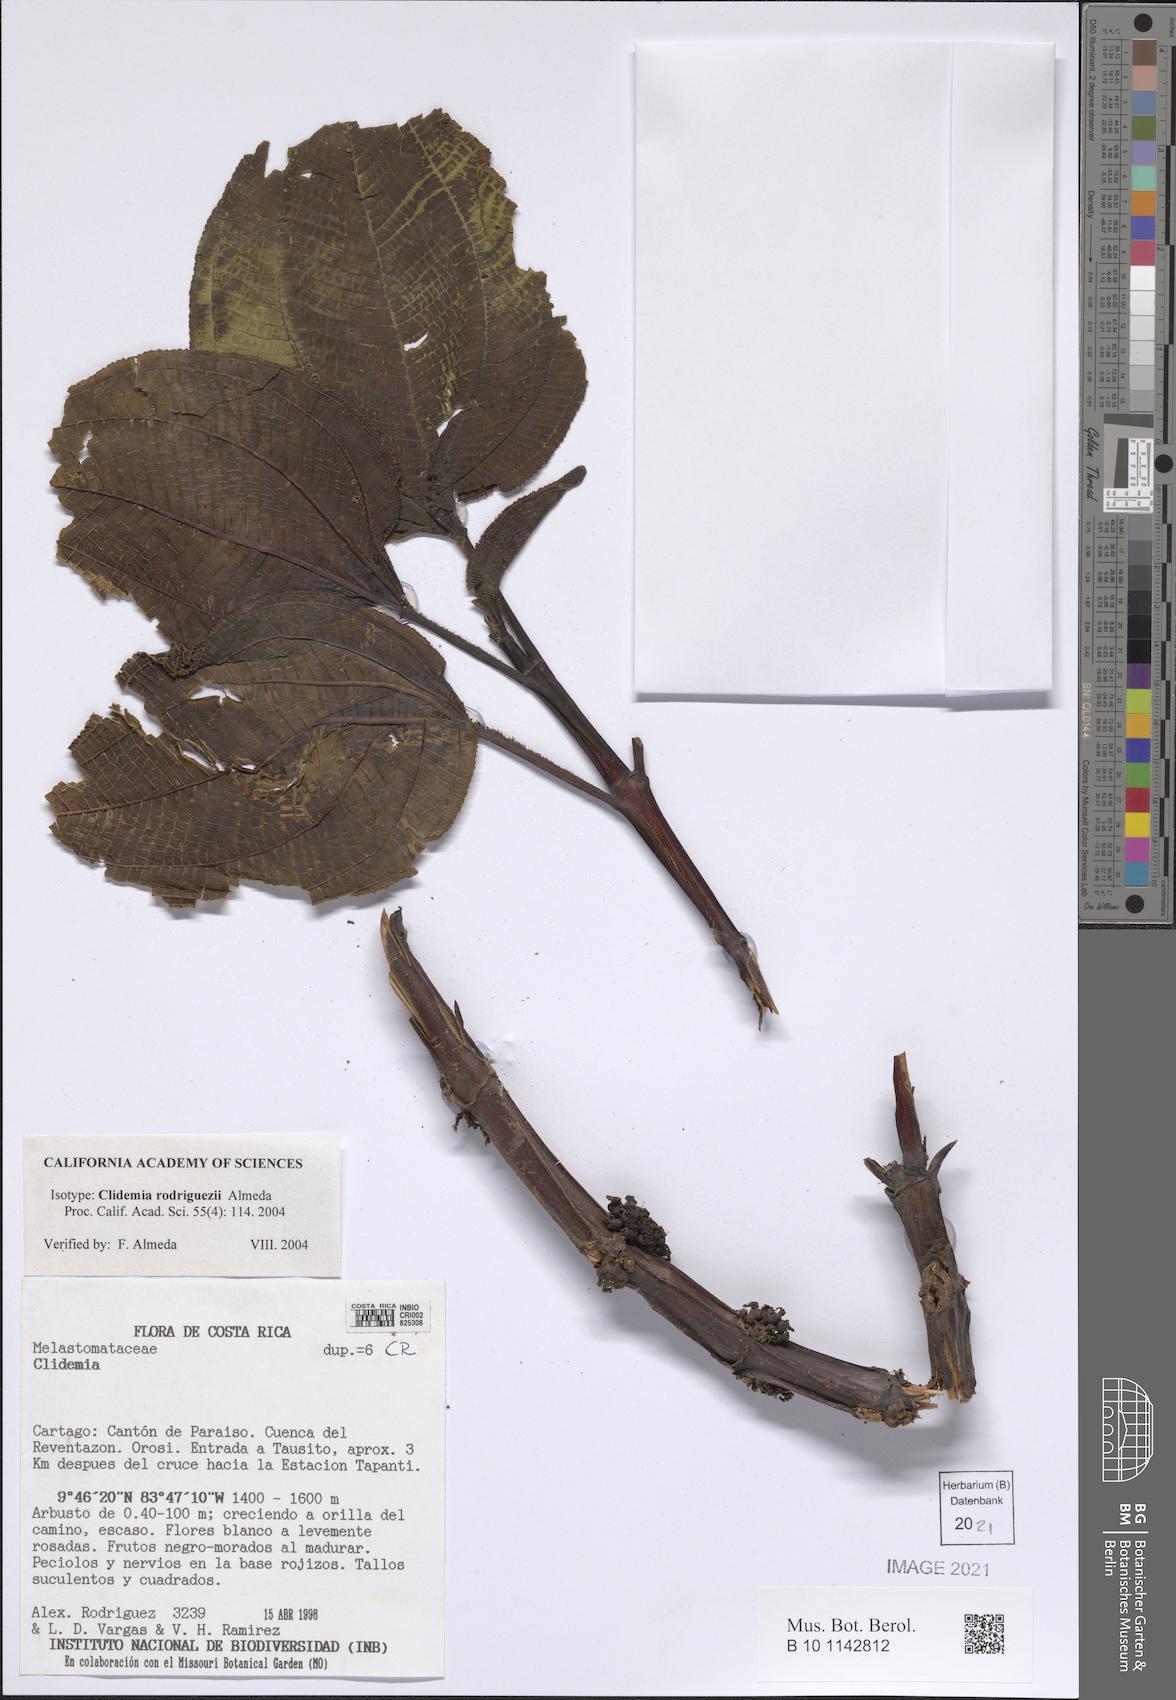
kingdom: Plantae
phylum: Tracheophyta
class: Magnoliopsida
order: Myrtales
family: Melastomataceae
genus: Miconia
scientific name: Miconia rodriguezii
